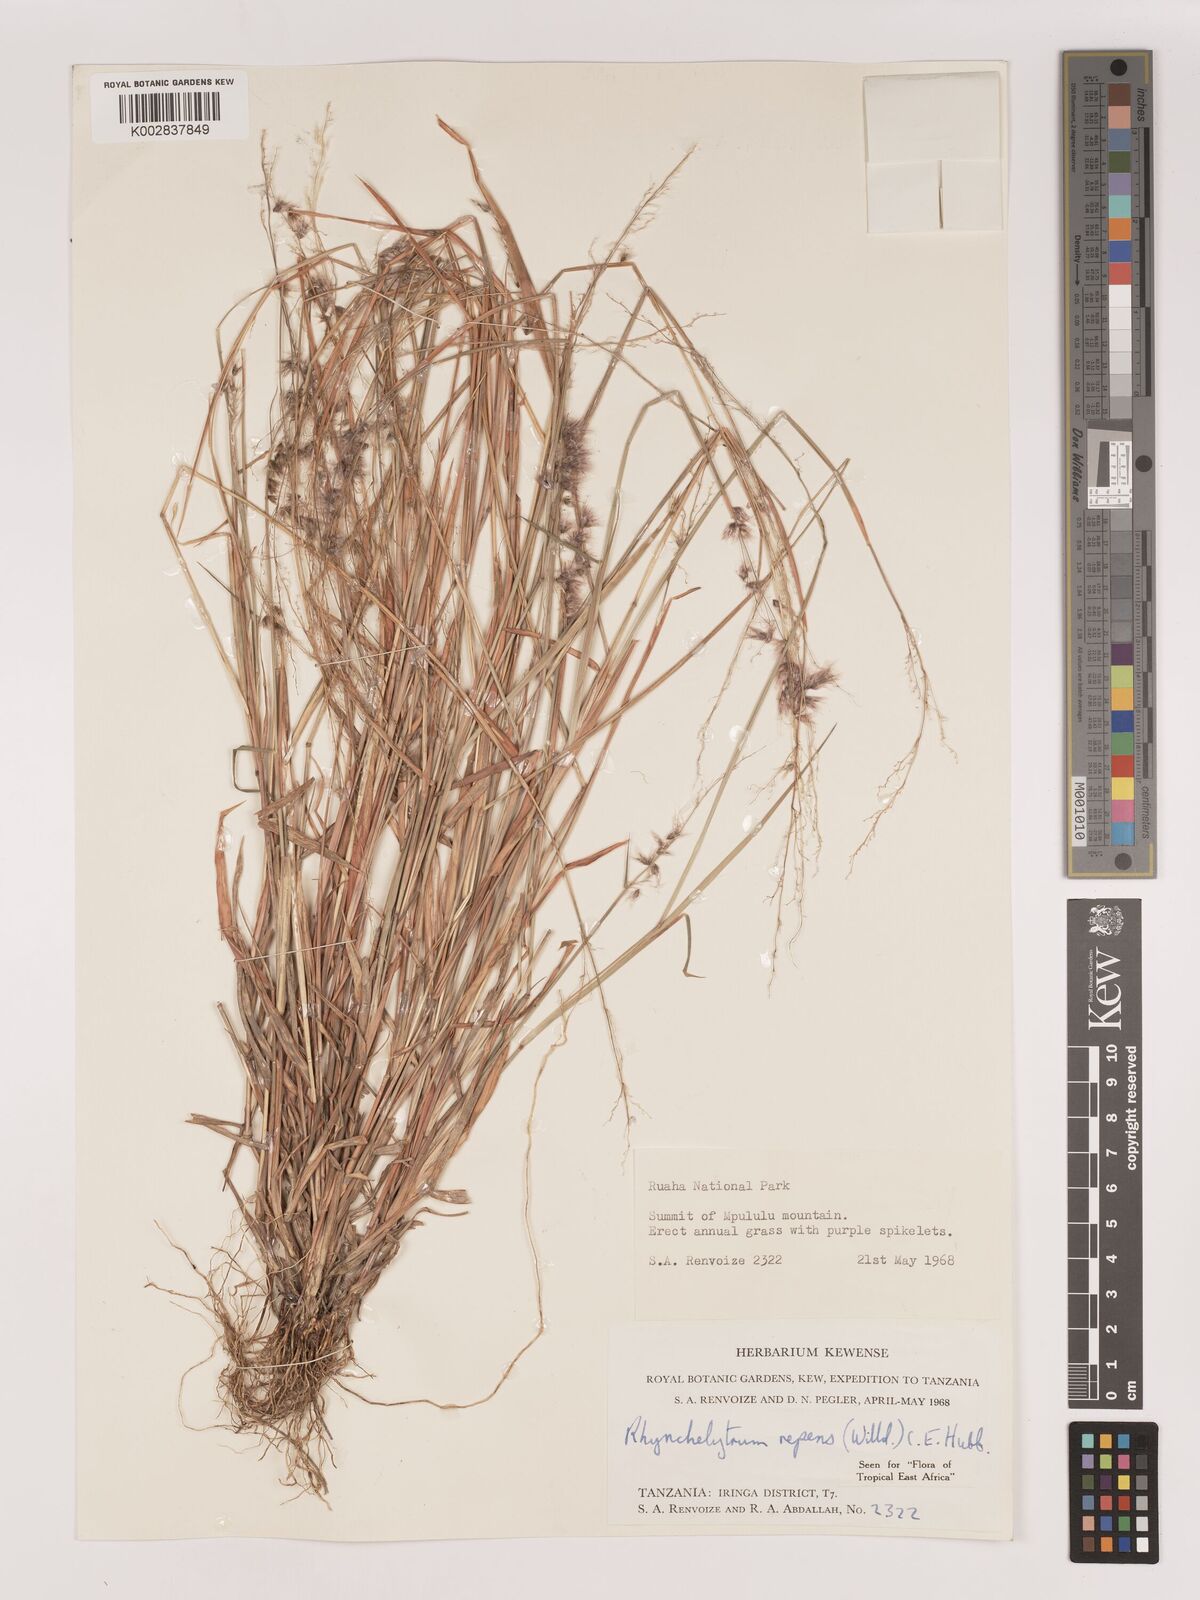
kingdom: Plantae
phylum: Tracheophyta
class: Liliopsida
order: Poales
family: Poaceae
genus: Melinis
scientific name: Melinis repens
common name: Rose natal grass
